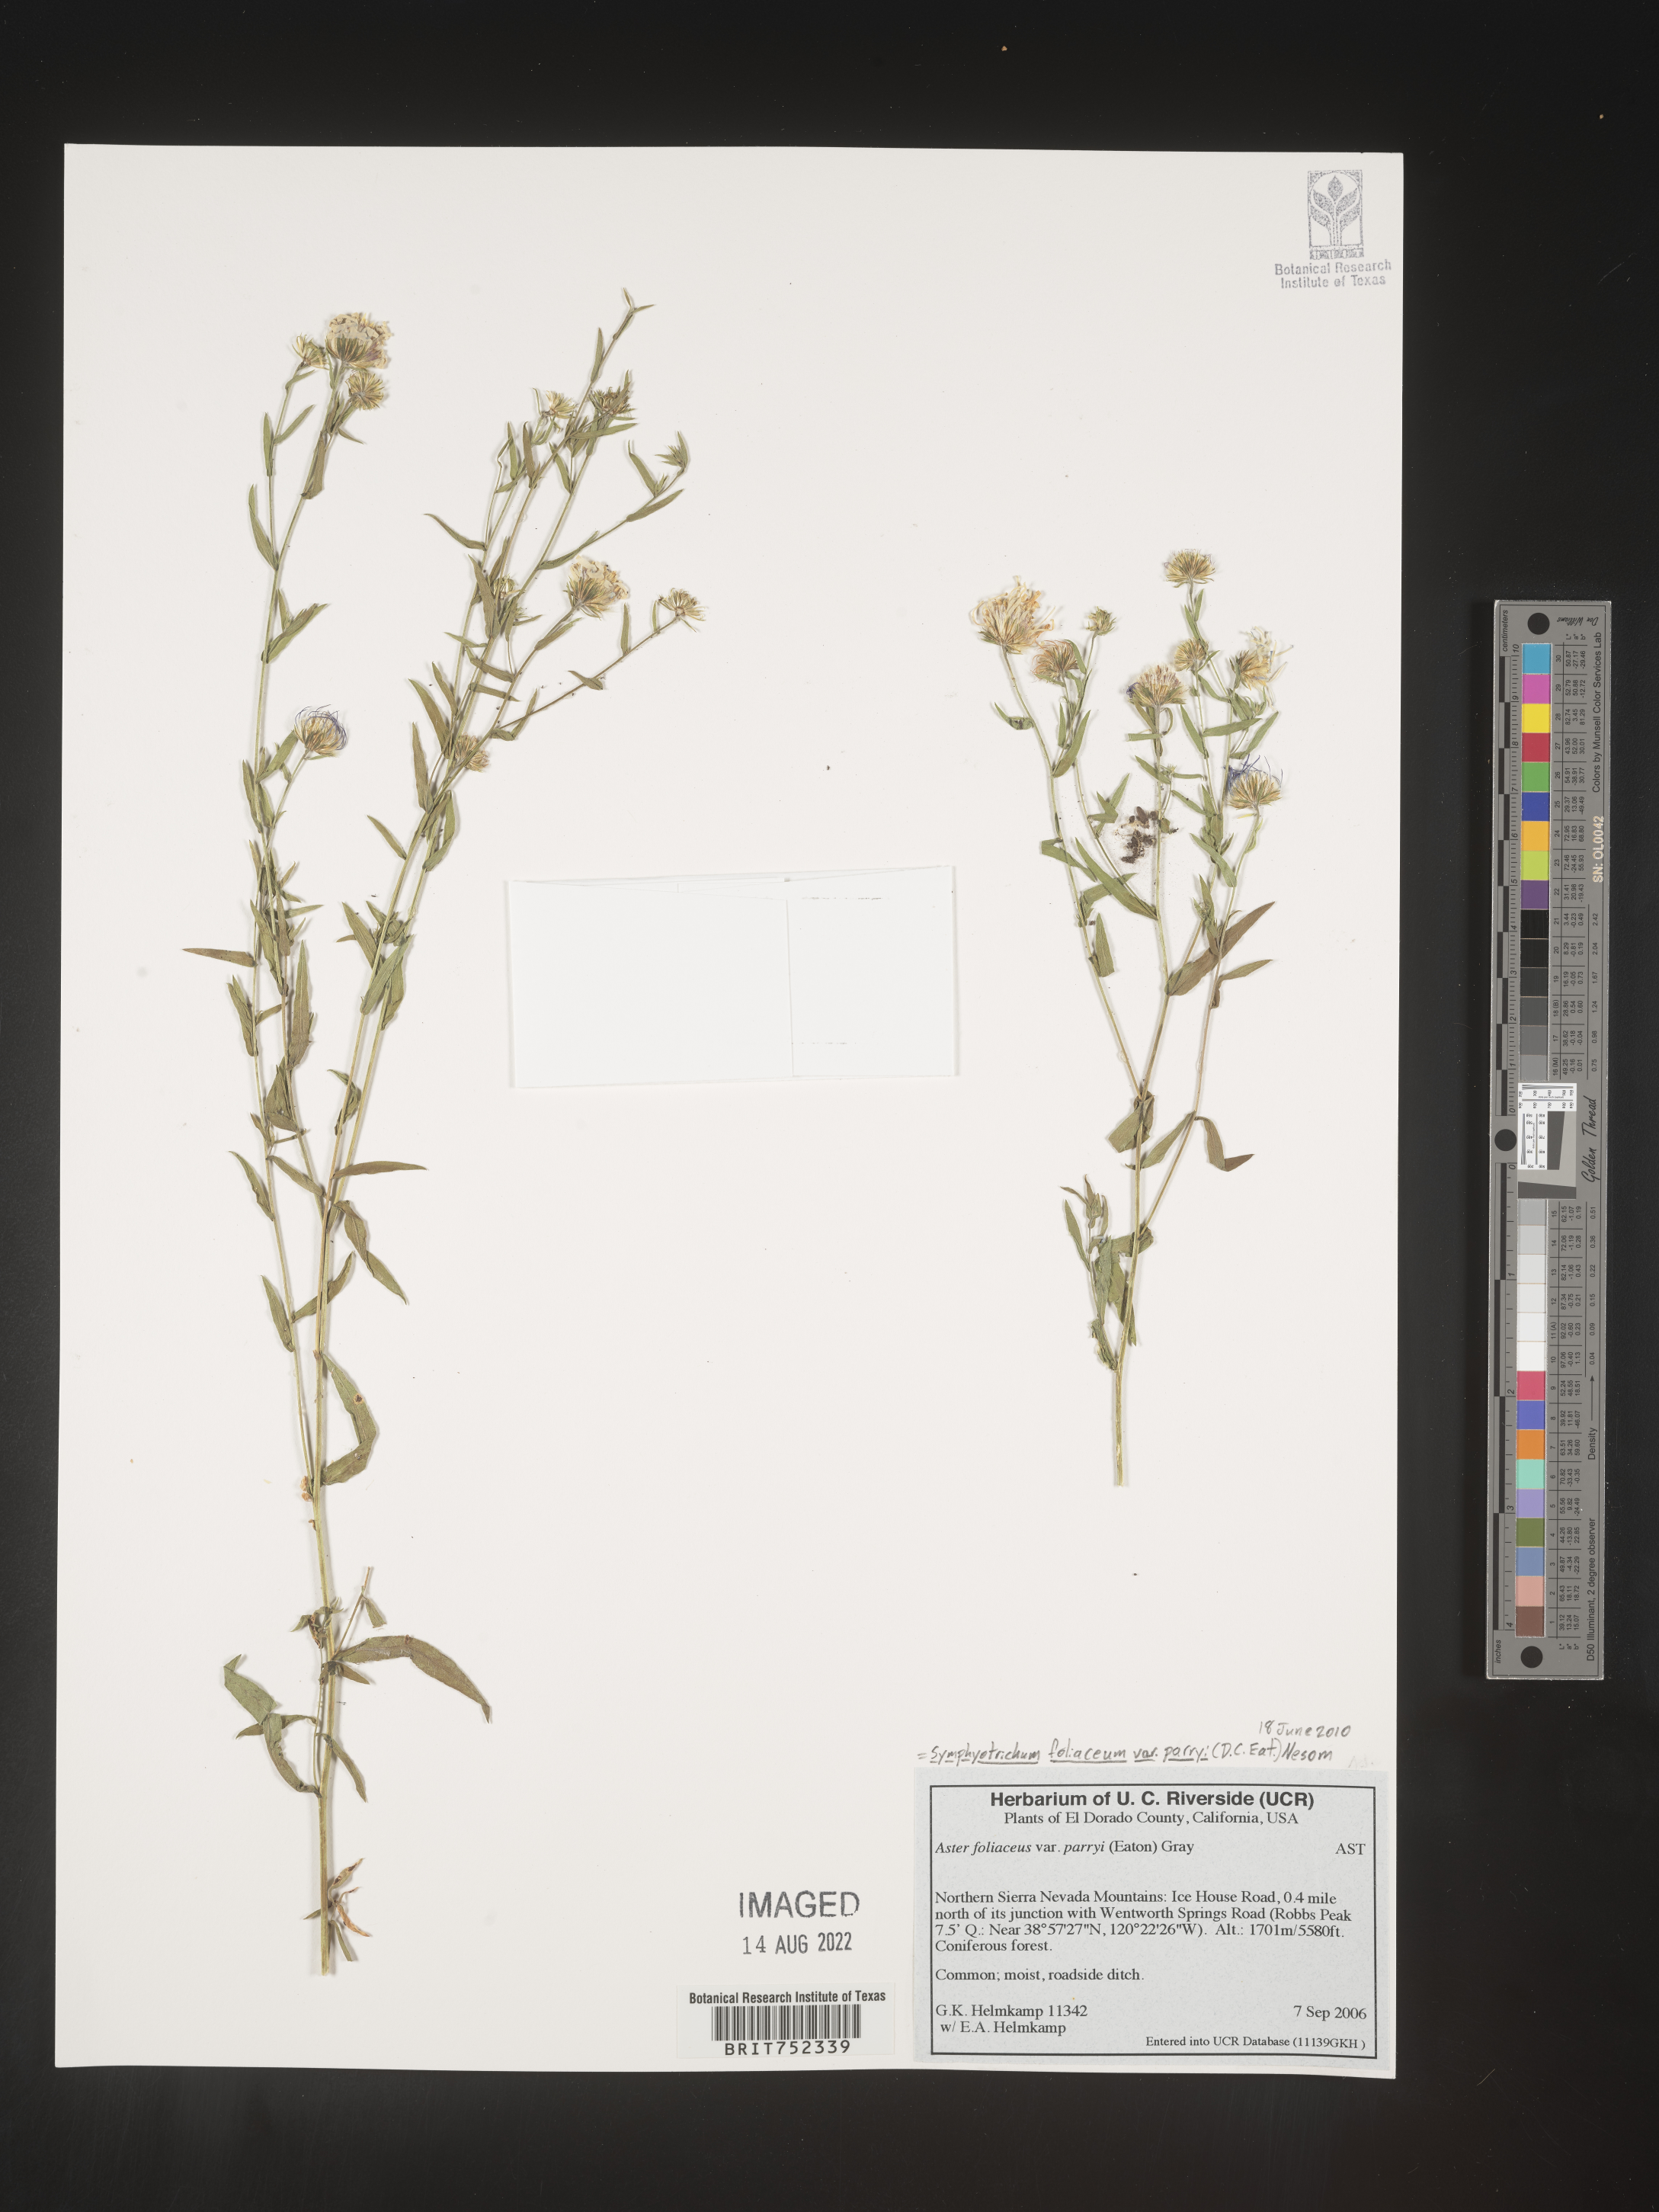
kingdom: Plantae
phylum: Tracheophyta
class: Magnoliopsida
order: Asterales
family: Asteraceae
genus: Symphyotrichum
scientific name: Symphyotrichum foliaceum
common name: Leafy aster
